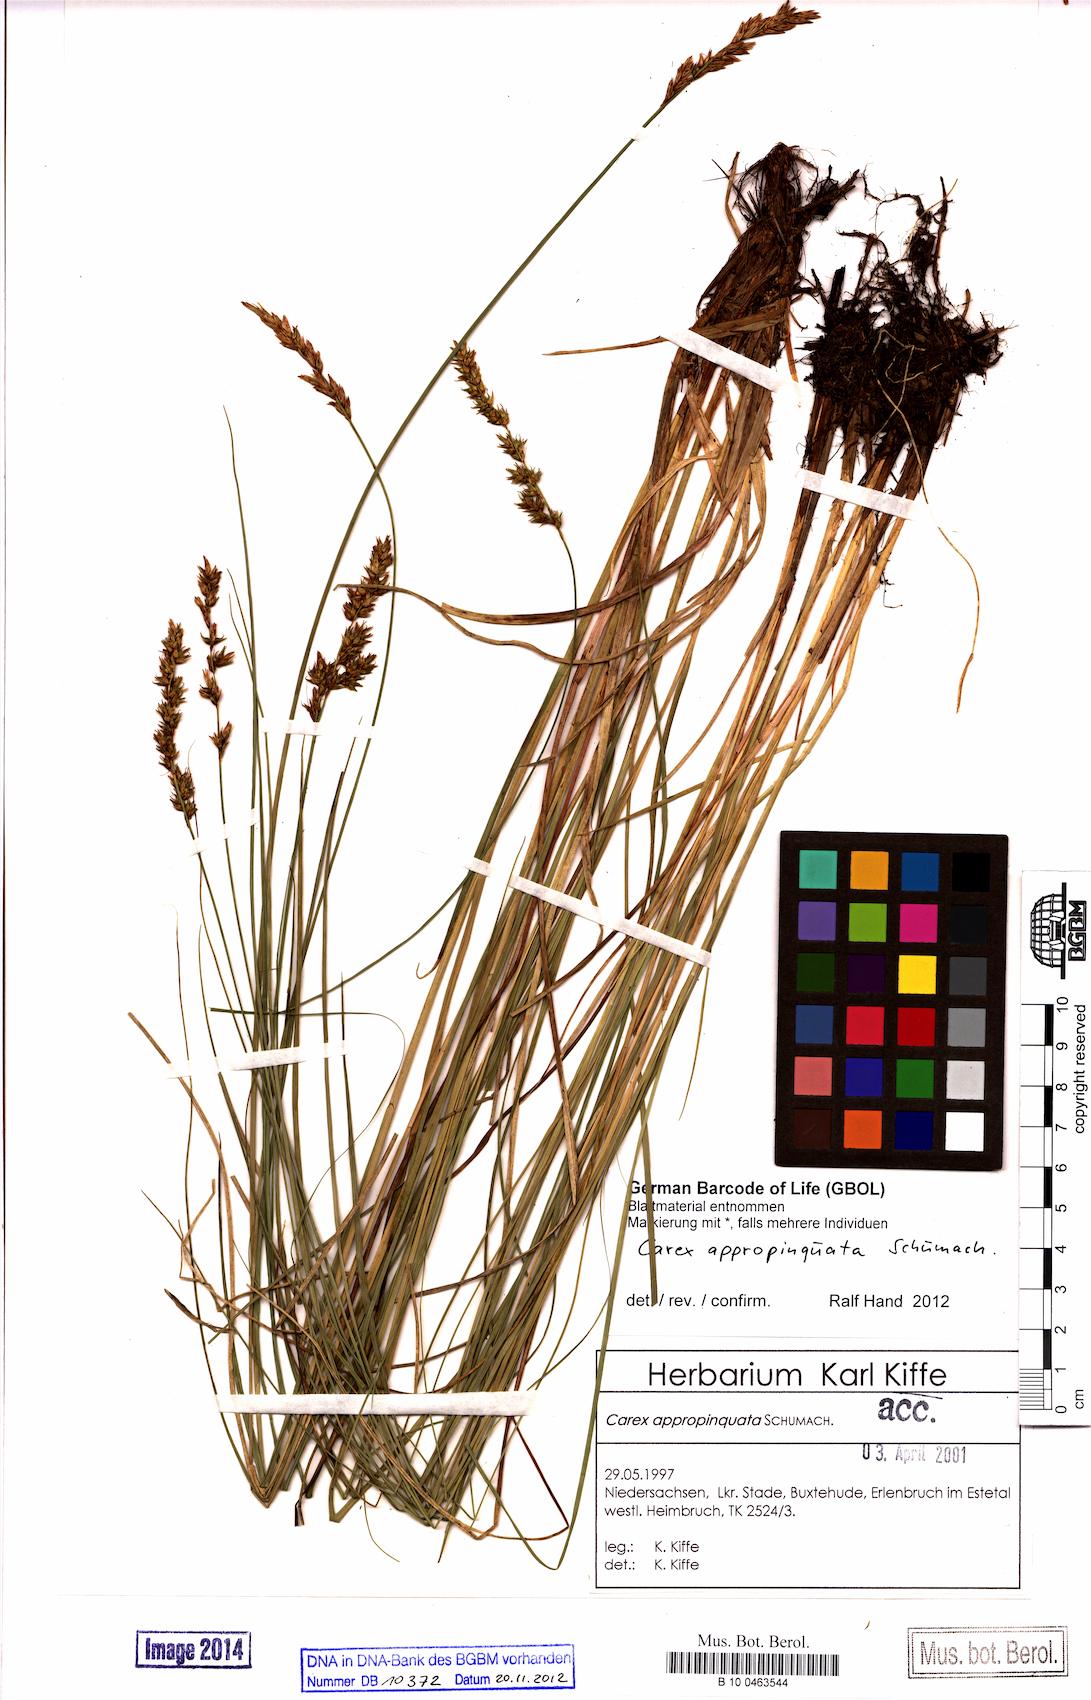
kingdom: Plantae
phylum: Tracheophyta
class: Liliopsida
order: Poales
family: Cyperaceae
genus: Carex
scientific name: Carex appropinquata
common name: Fibrous tussock-sedge
